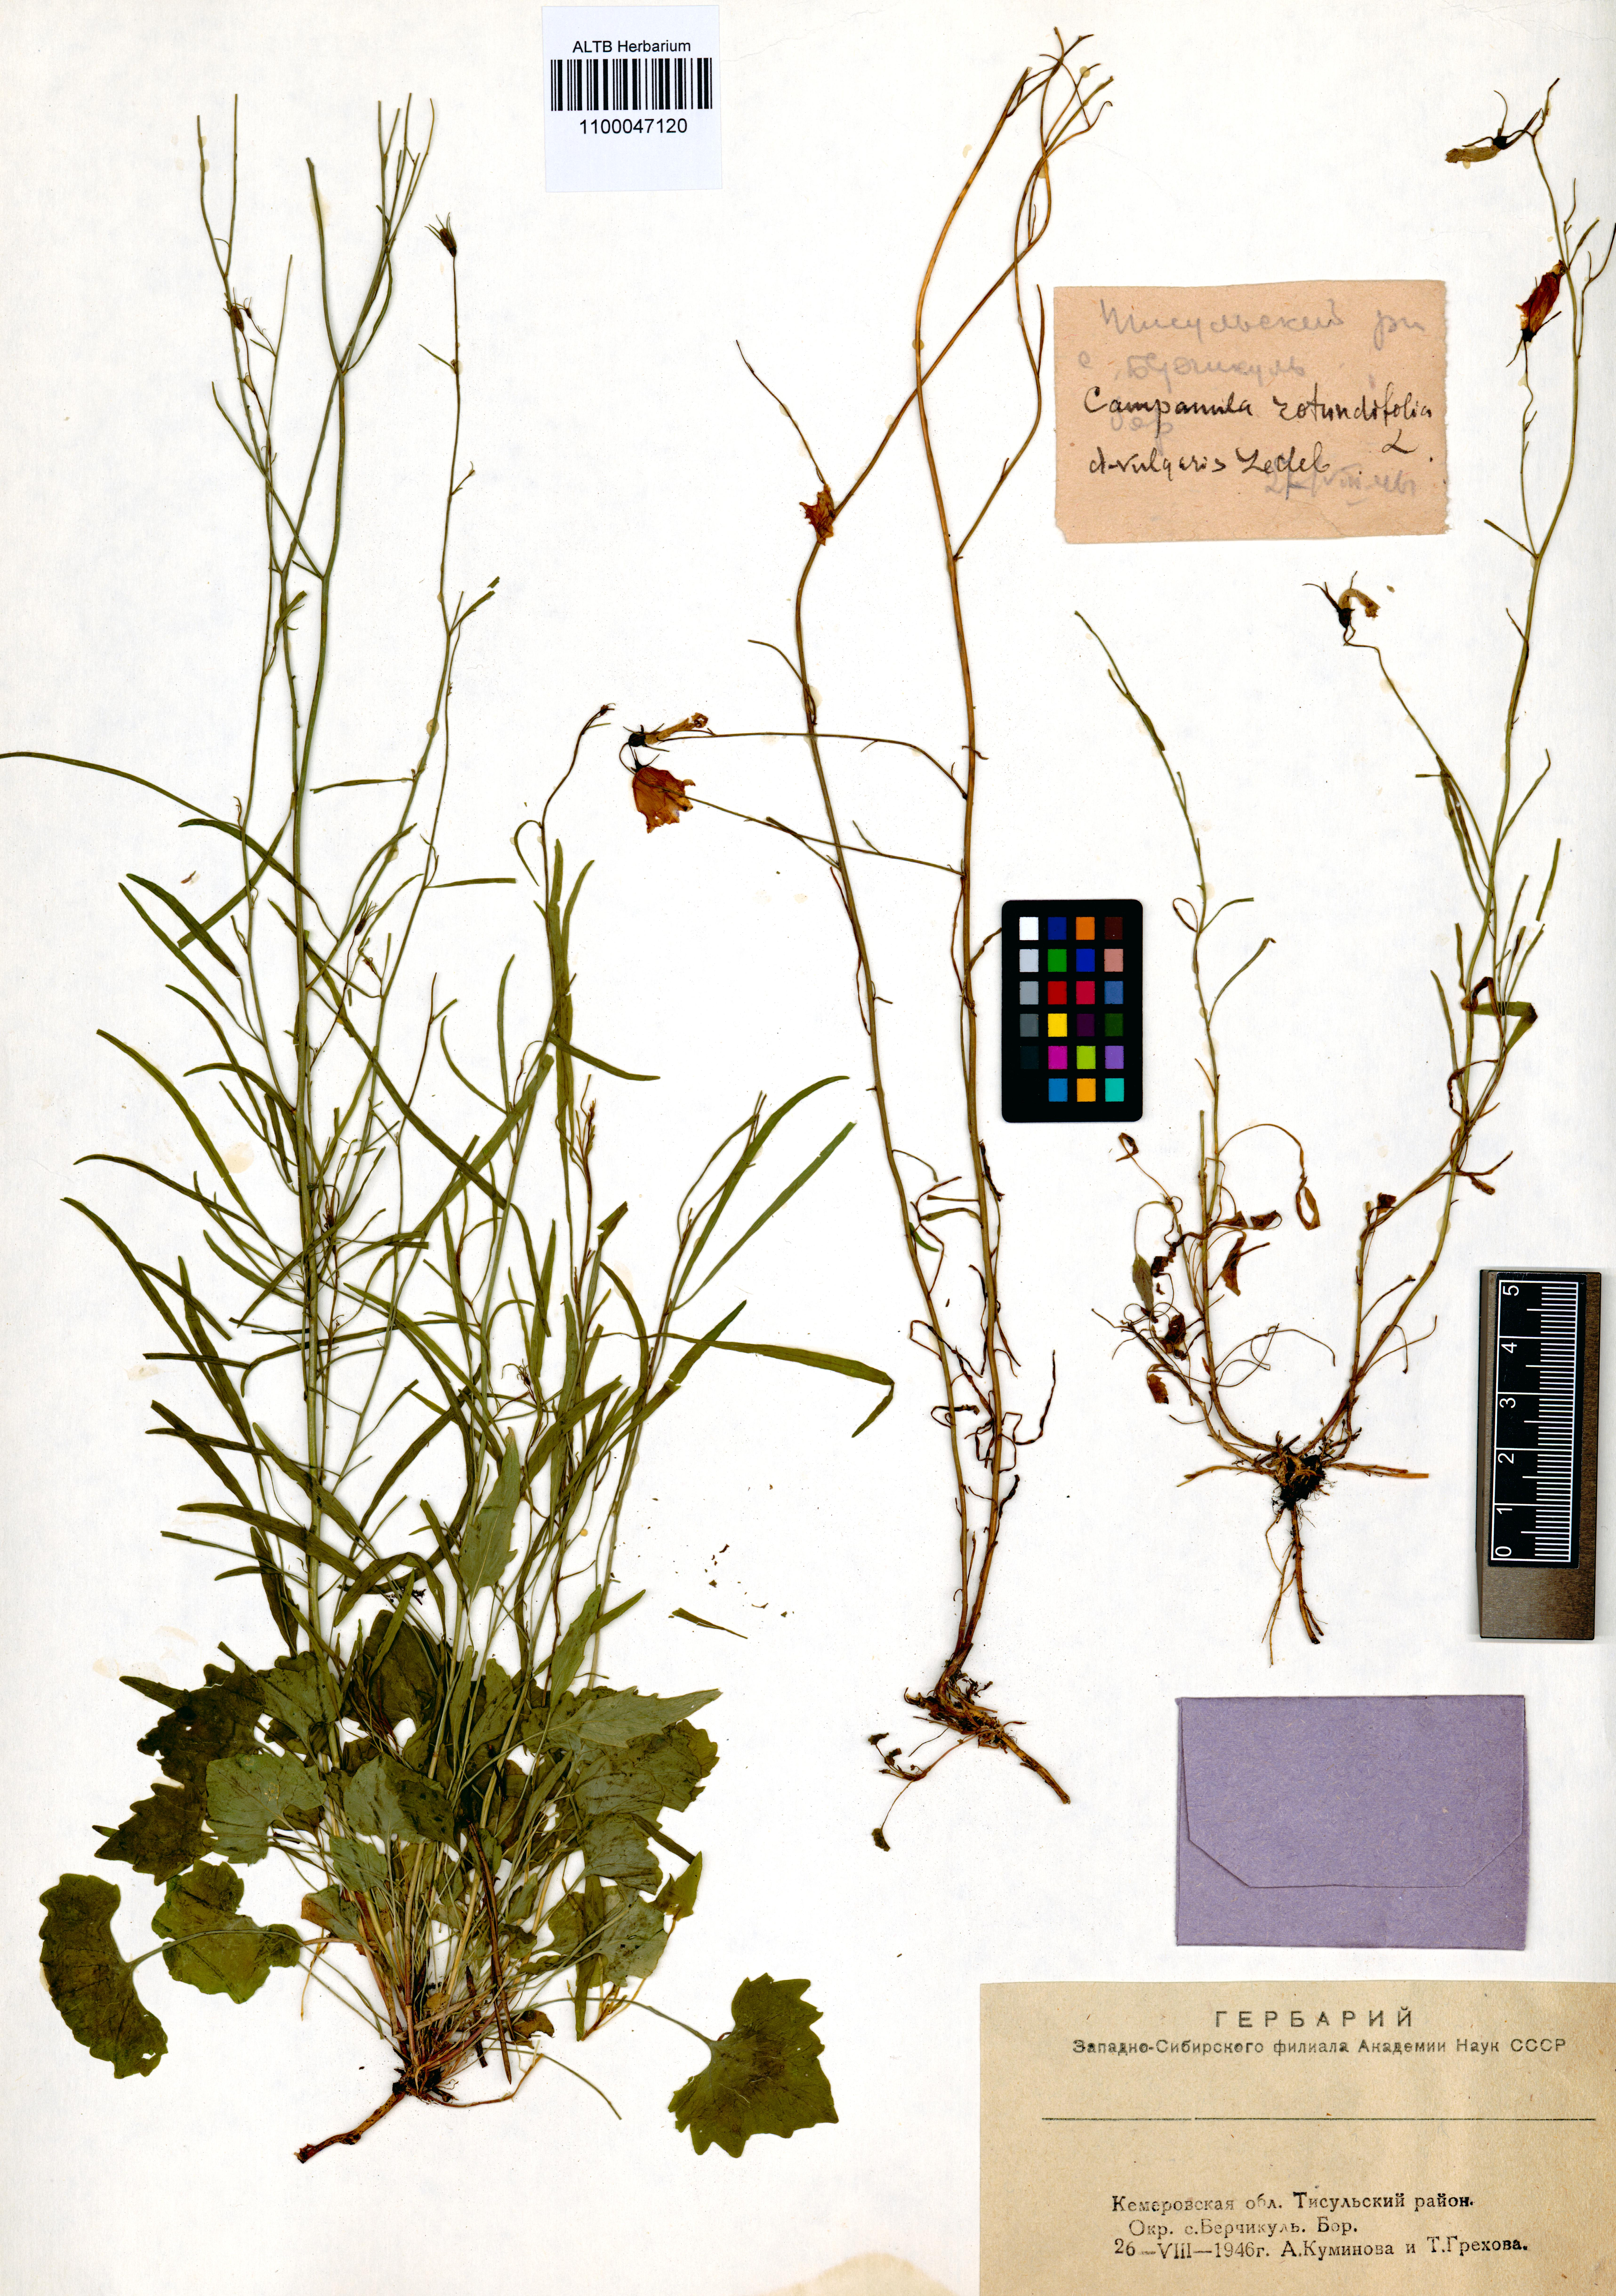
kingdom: Plantae
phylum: Tracheophyta
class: Magnoliopsida
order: Asterales
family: Campanulaceae
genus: Campanula
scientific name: Campanula rotundifolia
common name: Harebell
